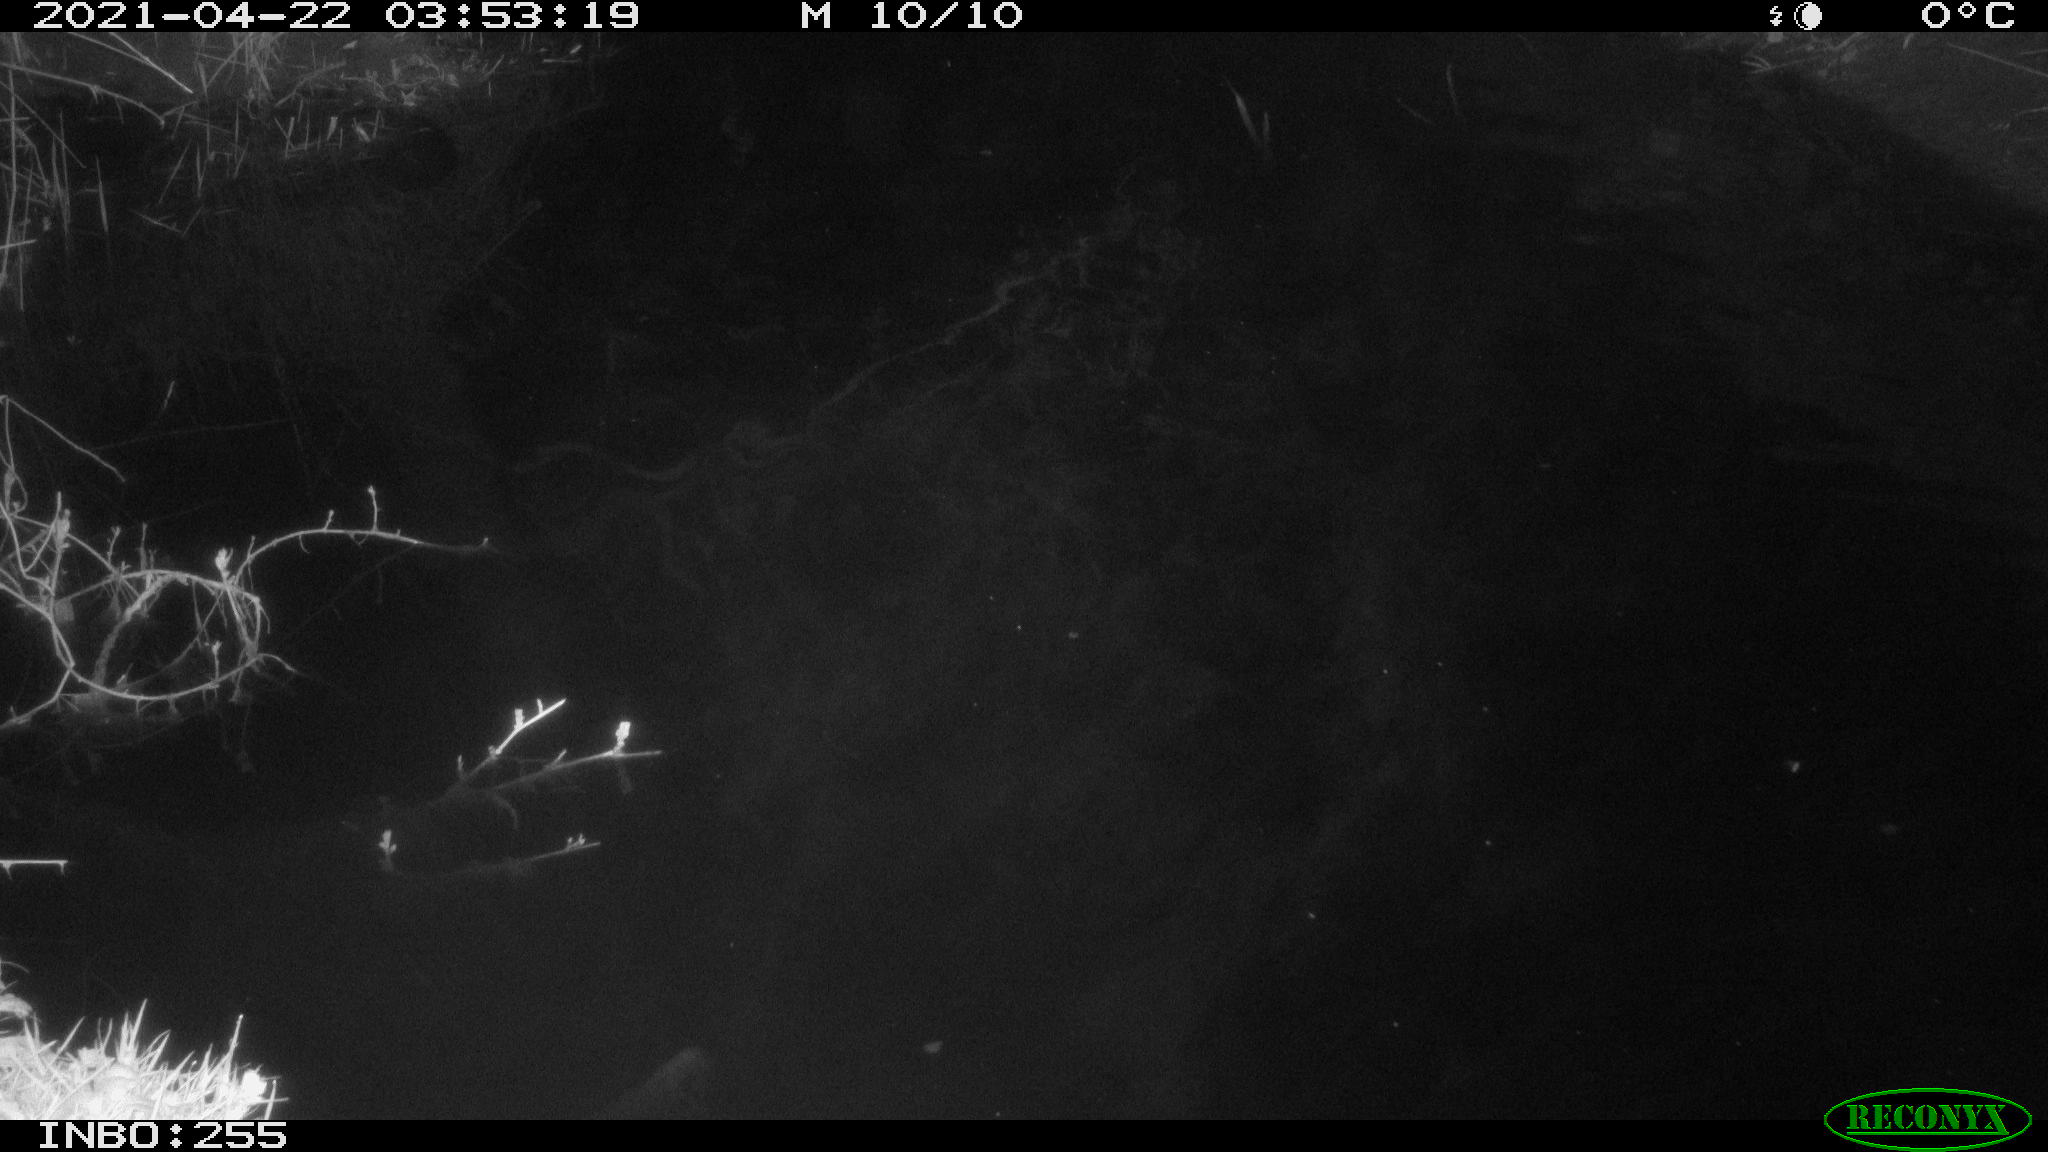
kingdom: Animalia
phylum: Chordata
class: Aves
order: Anseriformes
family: Anatidae
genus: Anas
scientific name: Anas platyrhynchos
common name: Mallard
